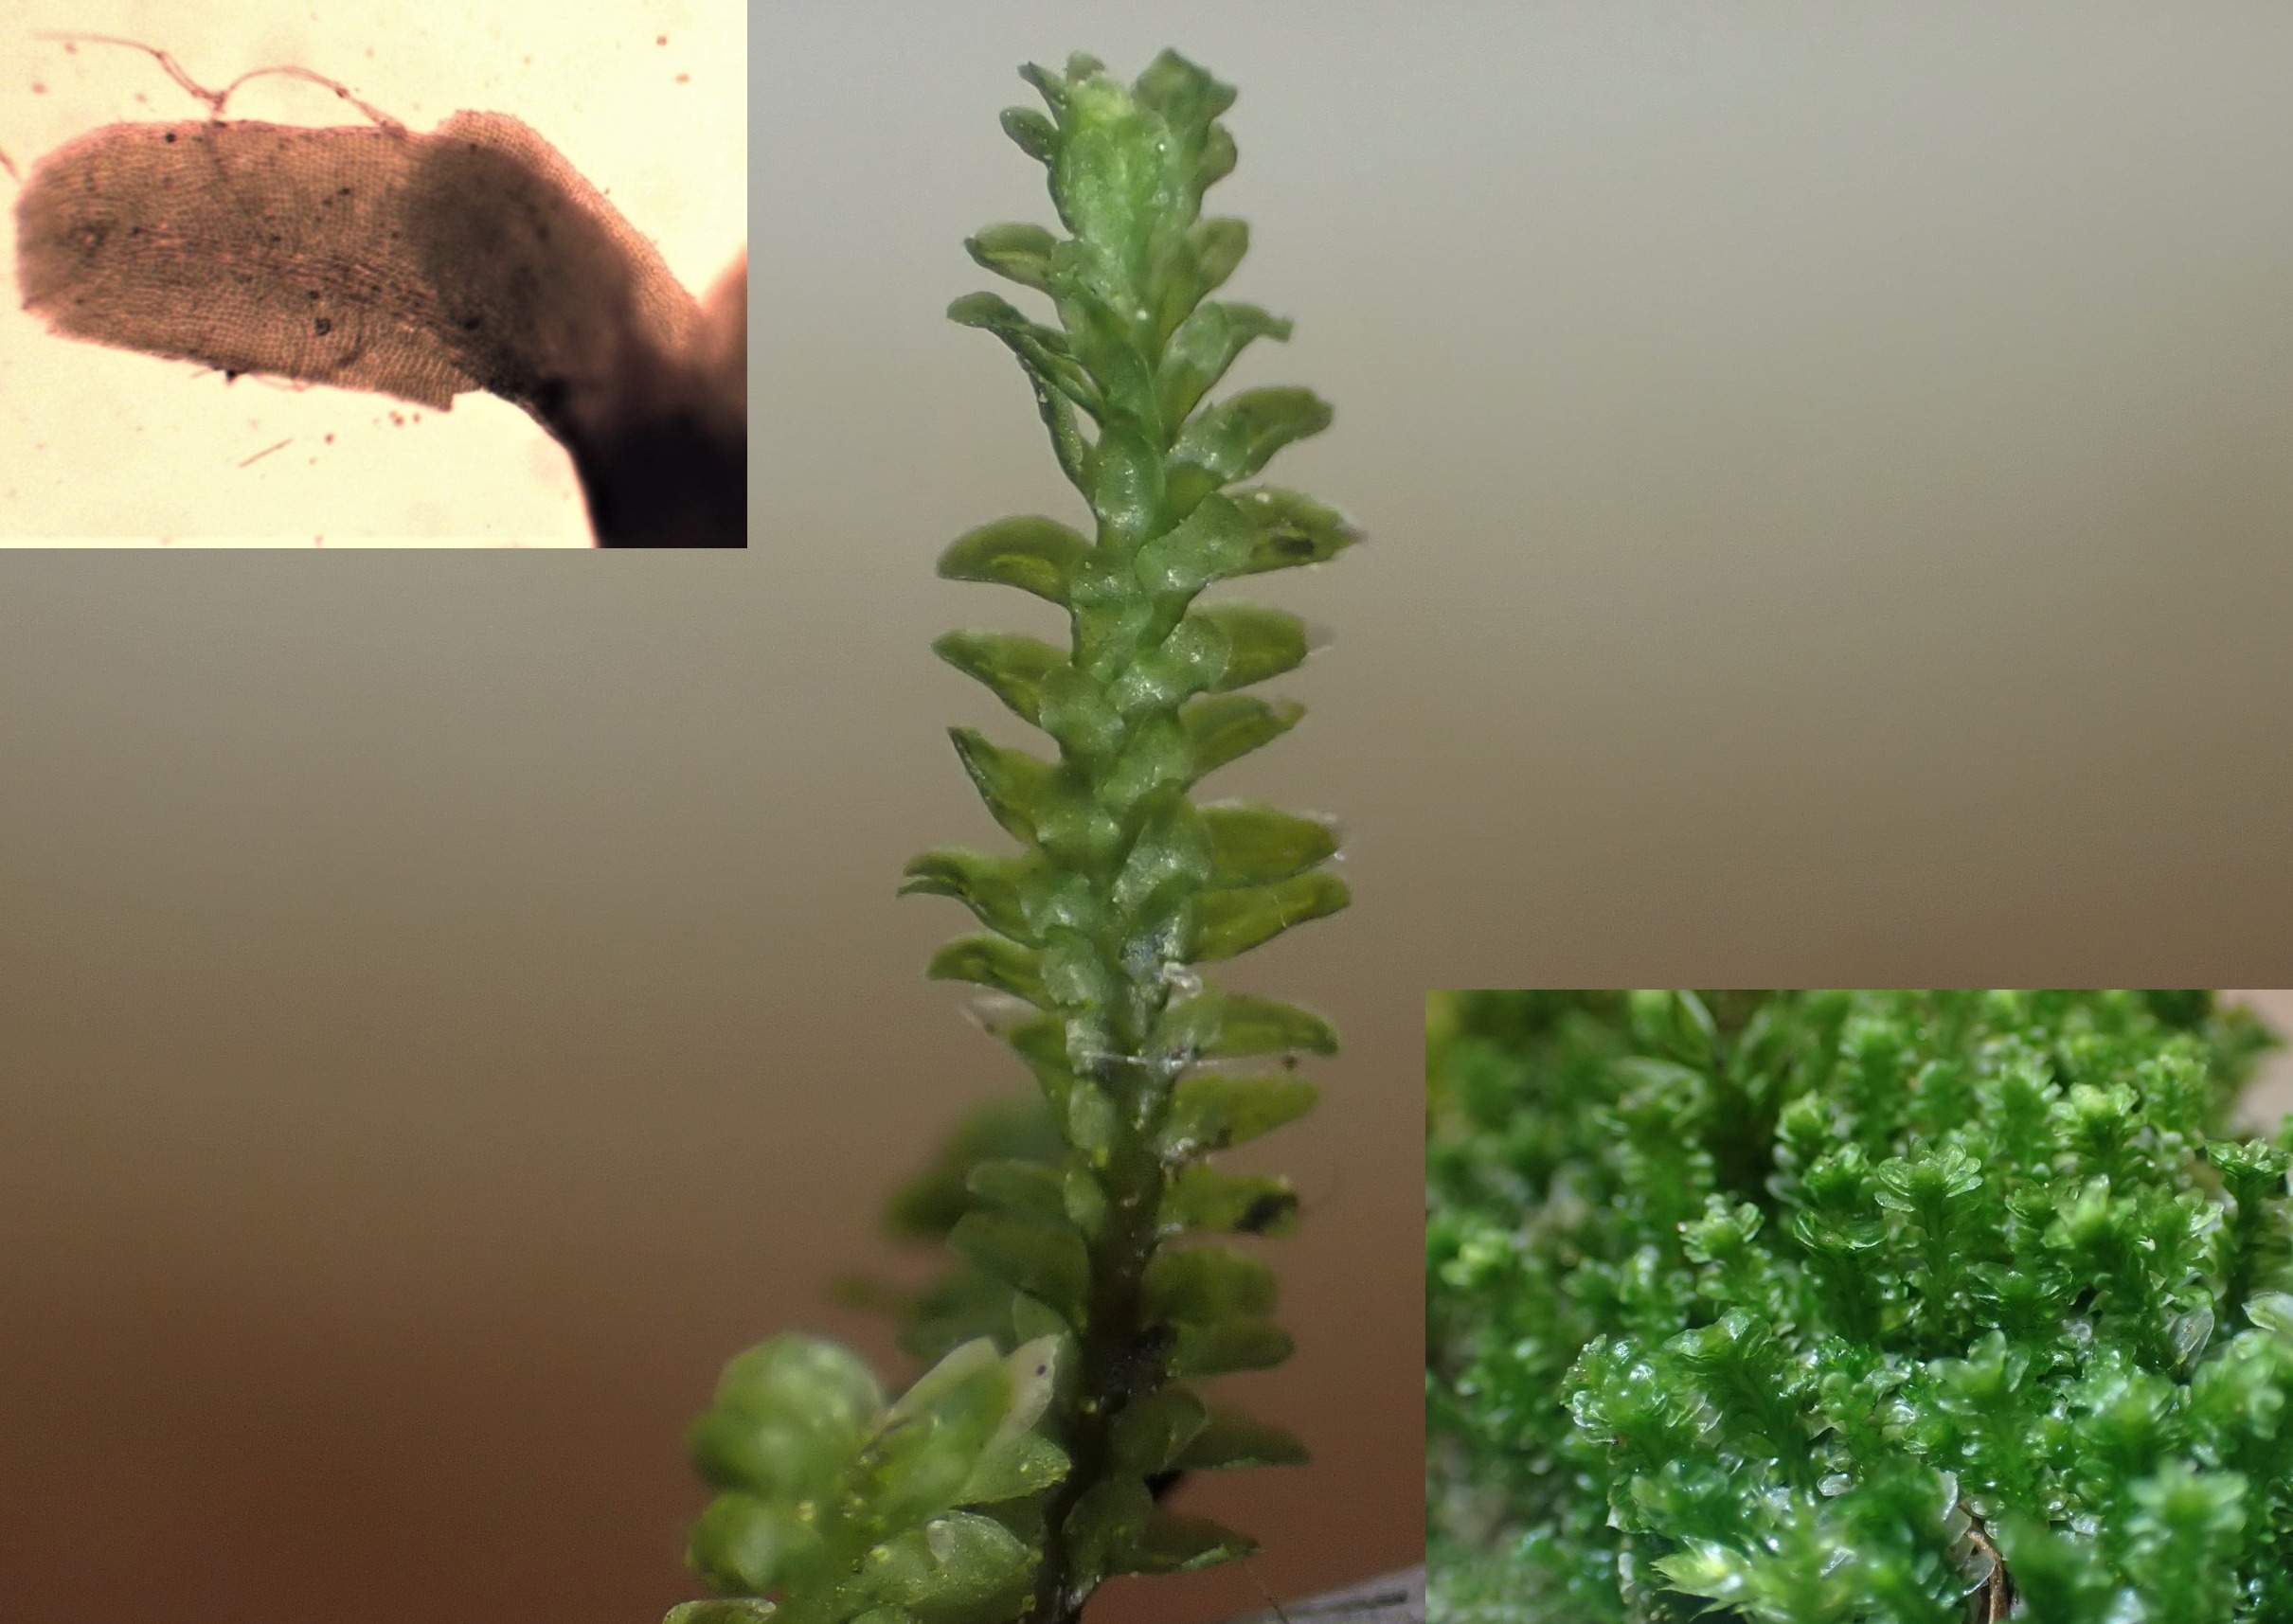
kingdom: Plantae
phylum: Marchantiophyta
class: Jungermanniopsida
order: Jungermanniales
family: Scapaniaceae
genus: Diplophyllum
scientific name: Diplophyllum albicans
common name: Stribet dobbeltblad
